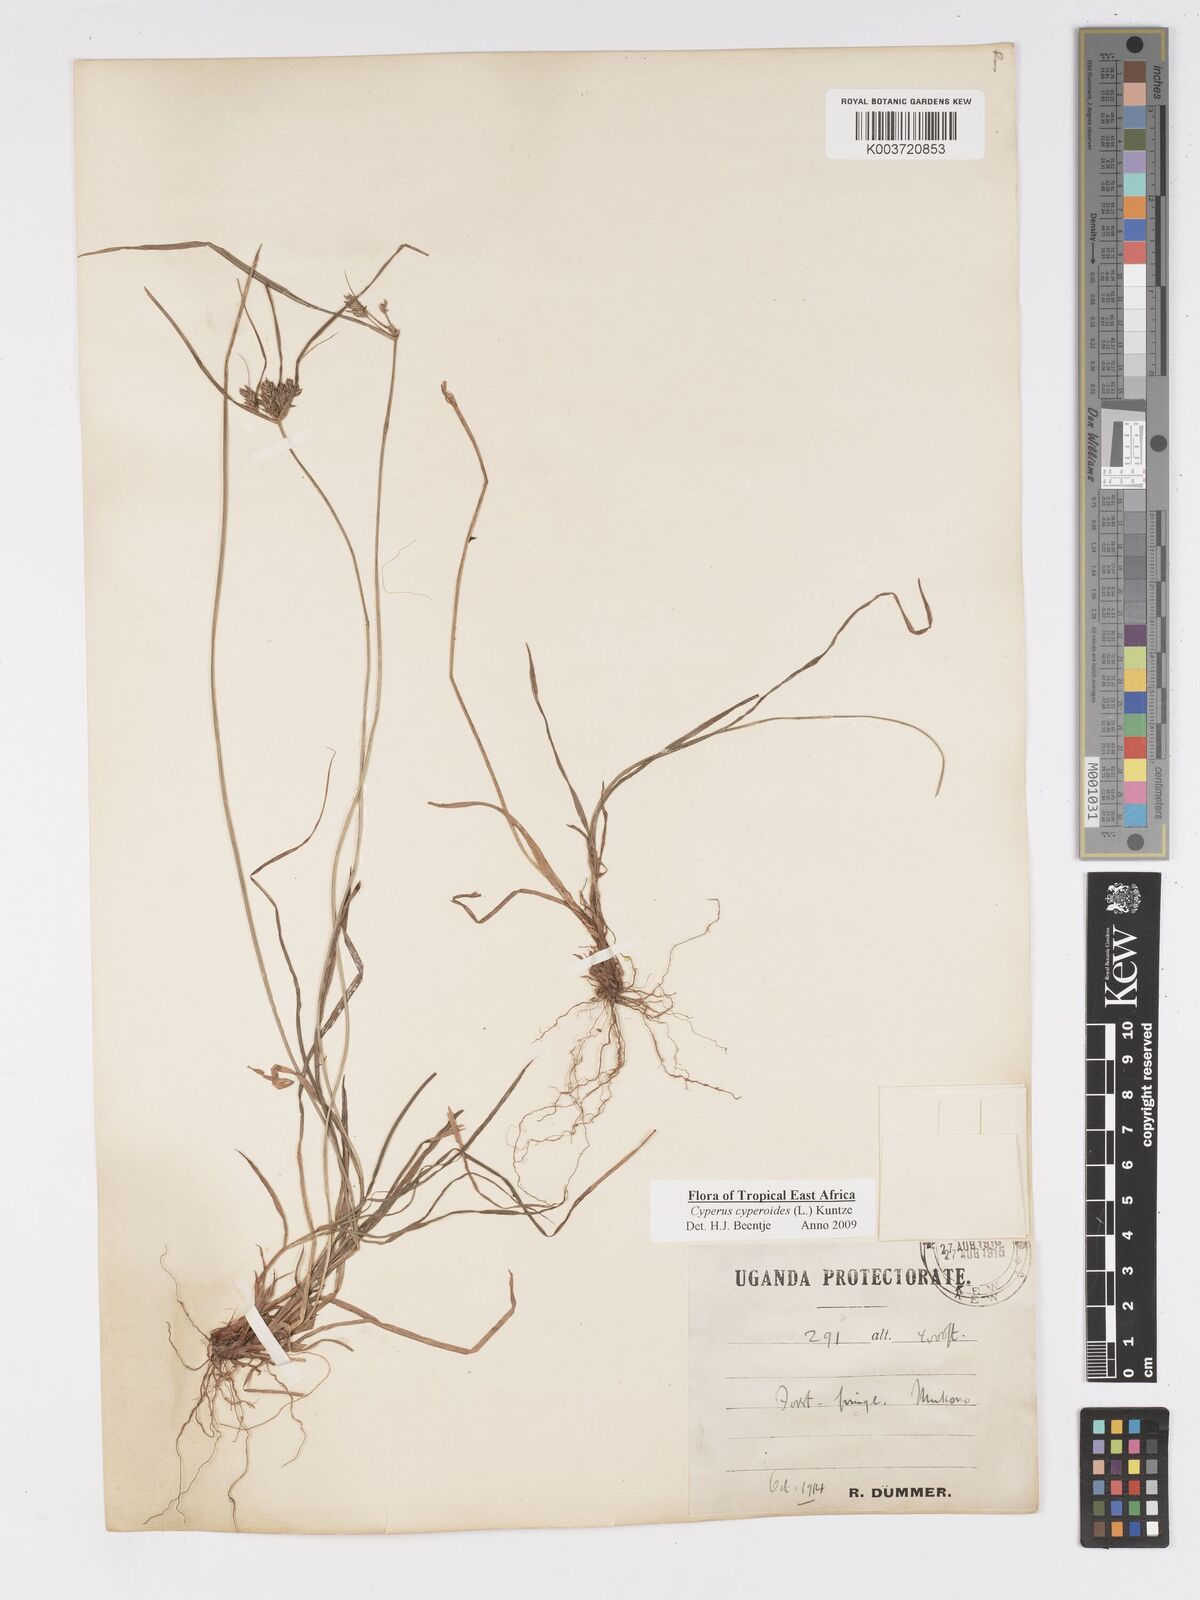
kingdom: Plantae
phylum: Tracheophyta
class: Liliopsida
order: Poales
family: Cyperaceae
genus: Cyperus
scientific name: Cyperus pseudoflavus
